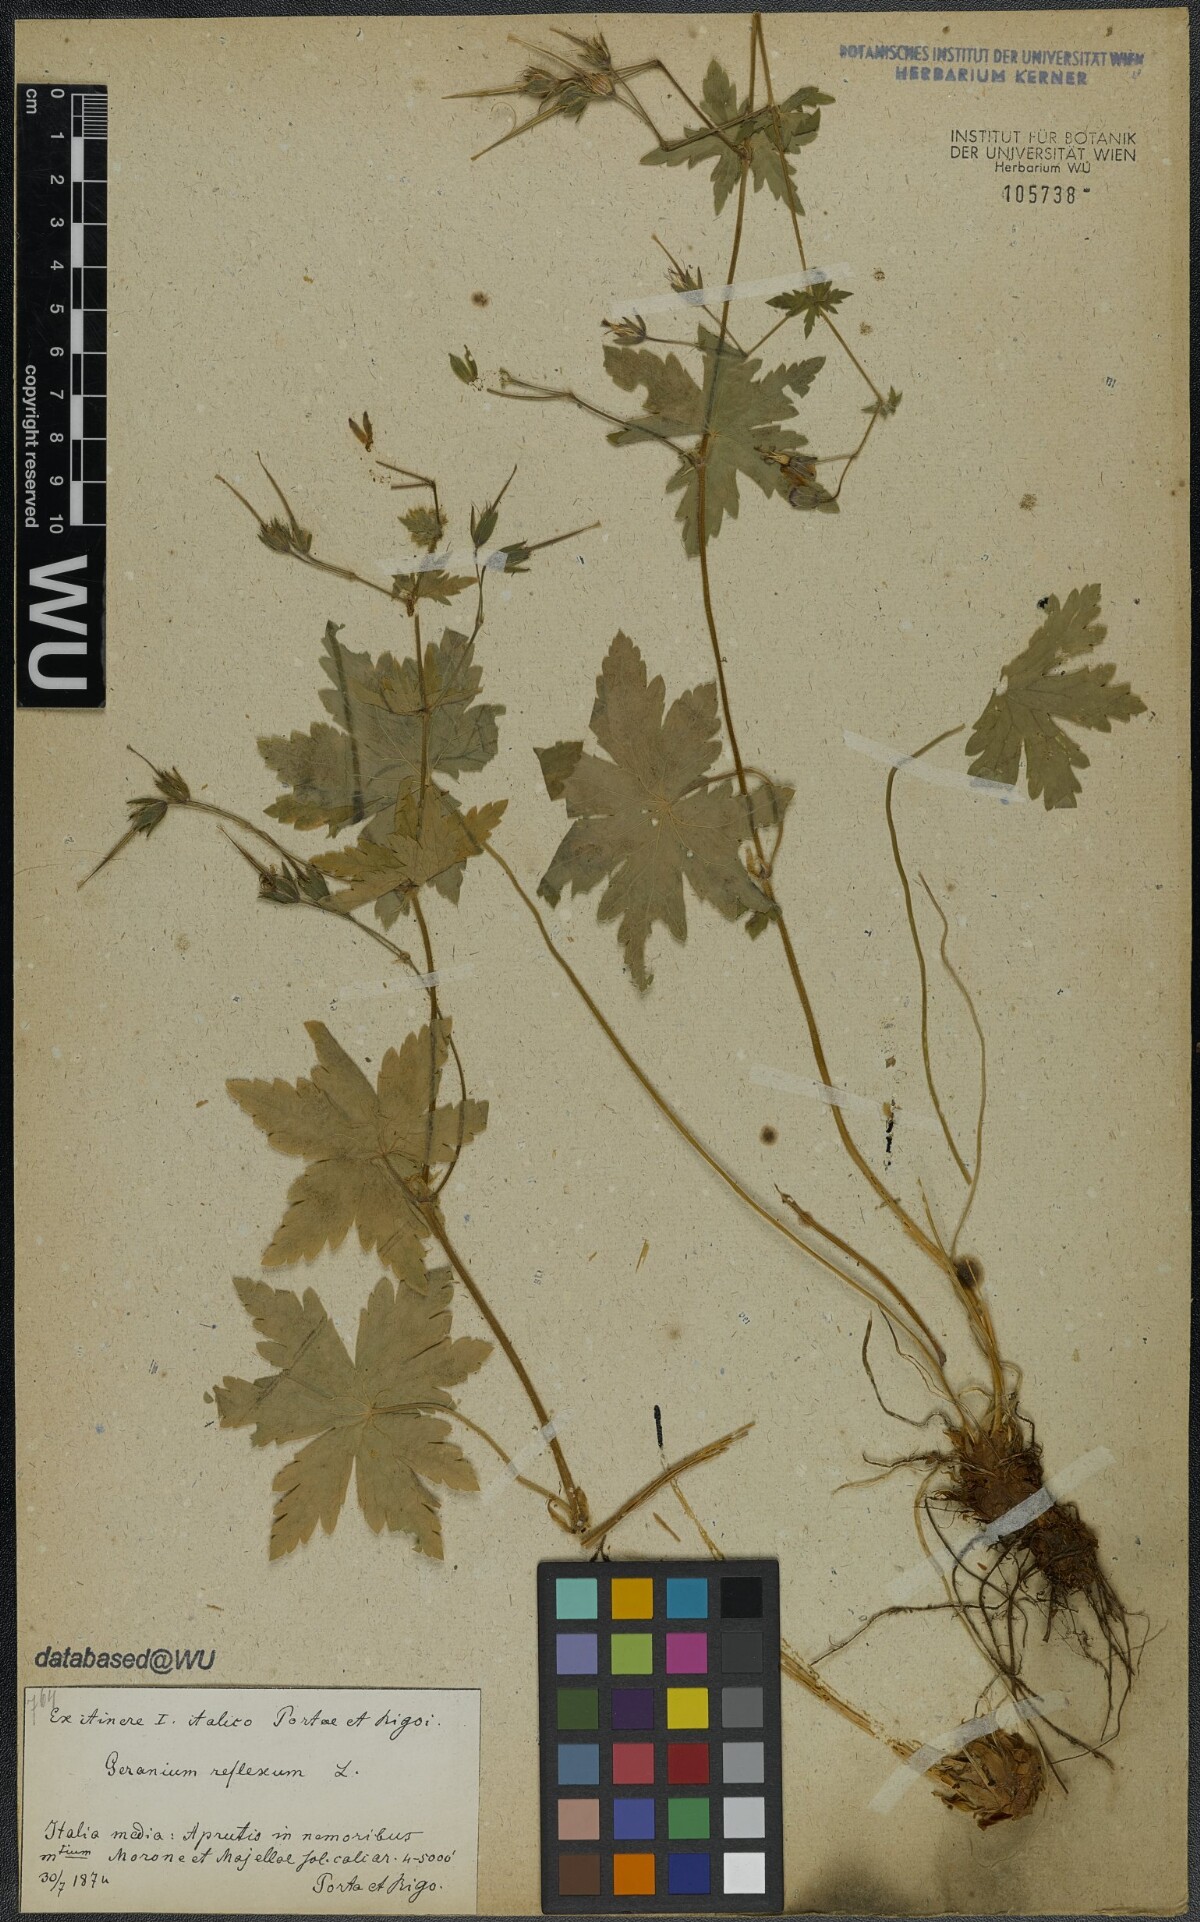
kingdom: Plantae
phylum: Tracheophyta
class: Magnoliopsida
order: Geraniales
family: Geraniaceae
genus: Geranium
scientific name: Geranium reflexum
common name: Reflexed crane's-bill
